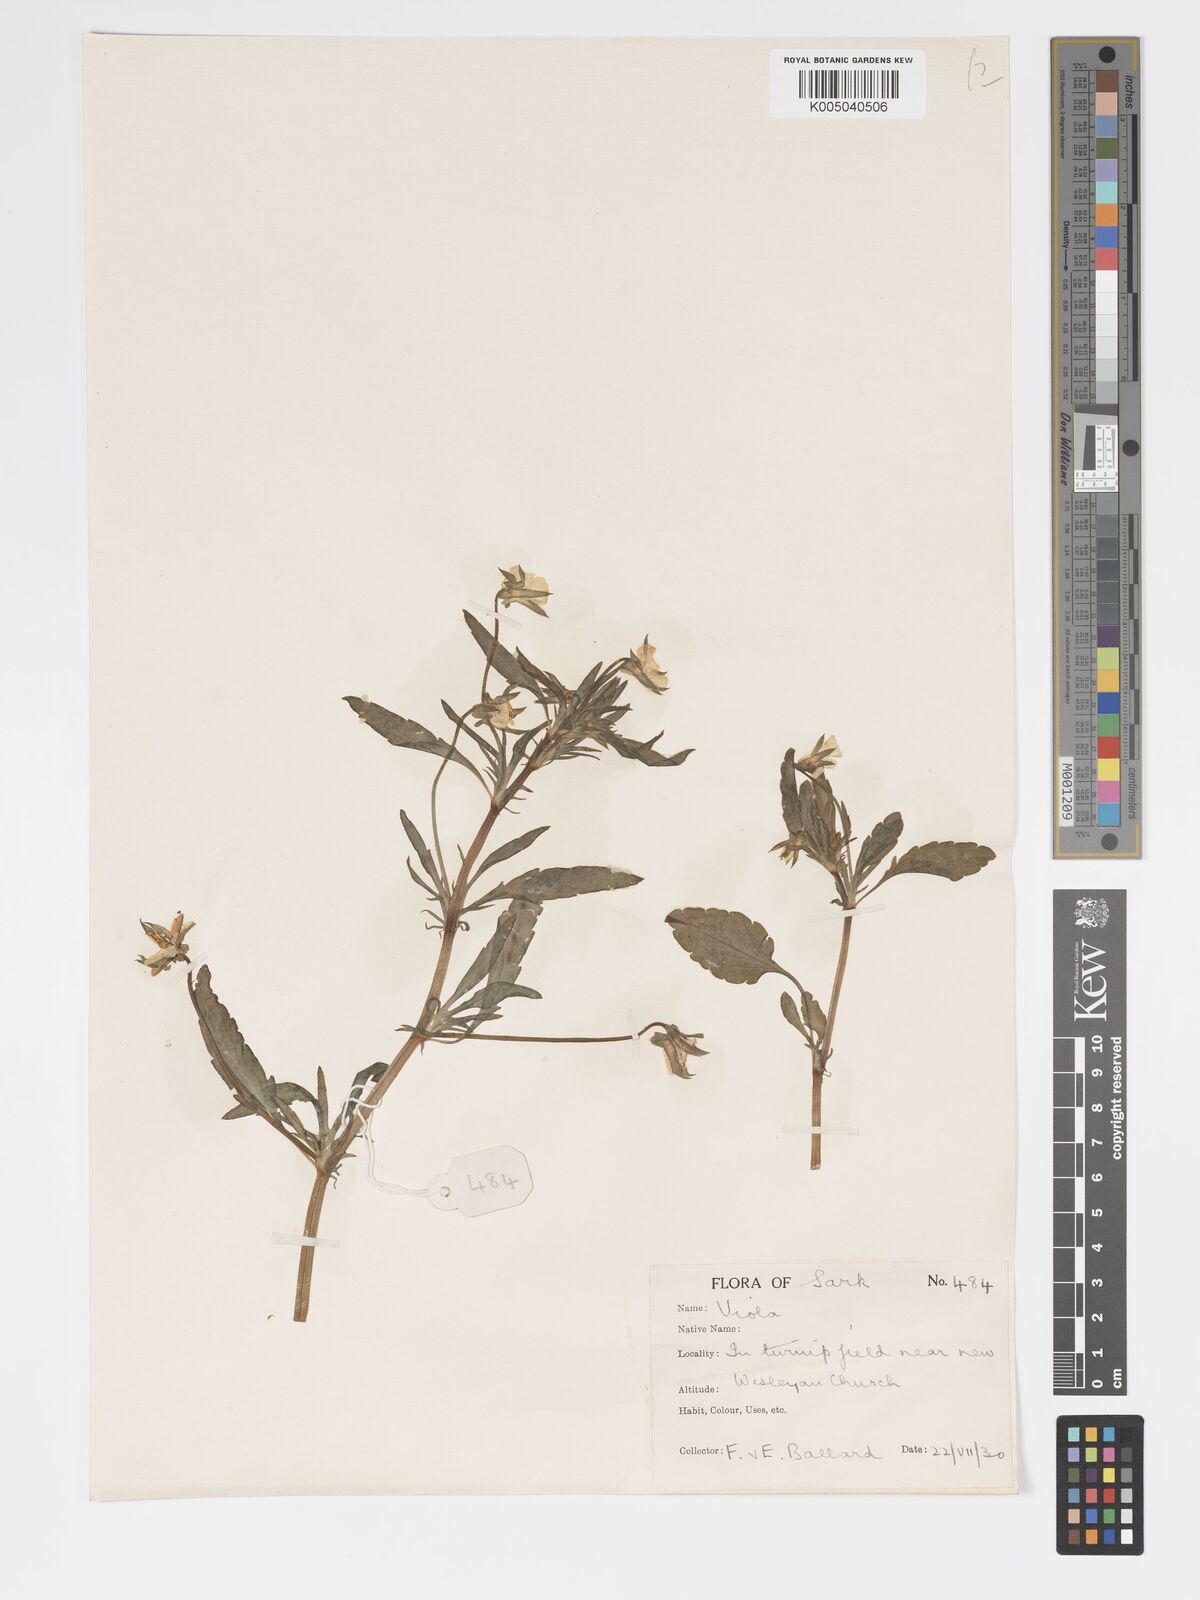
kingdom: Plantae
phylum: Tracheophyta
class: Magnoliopsida
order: Malpighiales
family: Violaceae
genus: Viola
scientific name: Viola arvensis
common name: Field pansy
